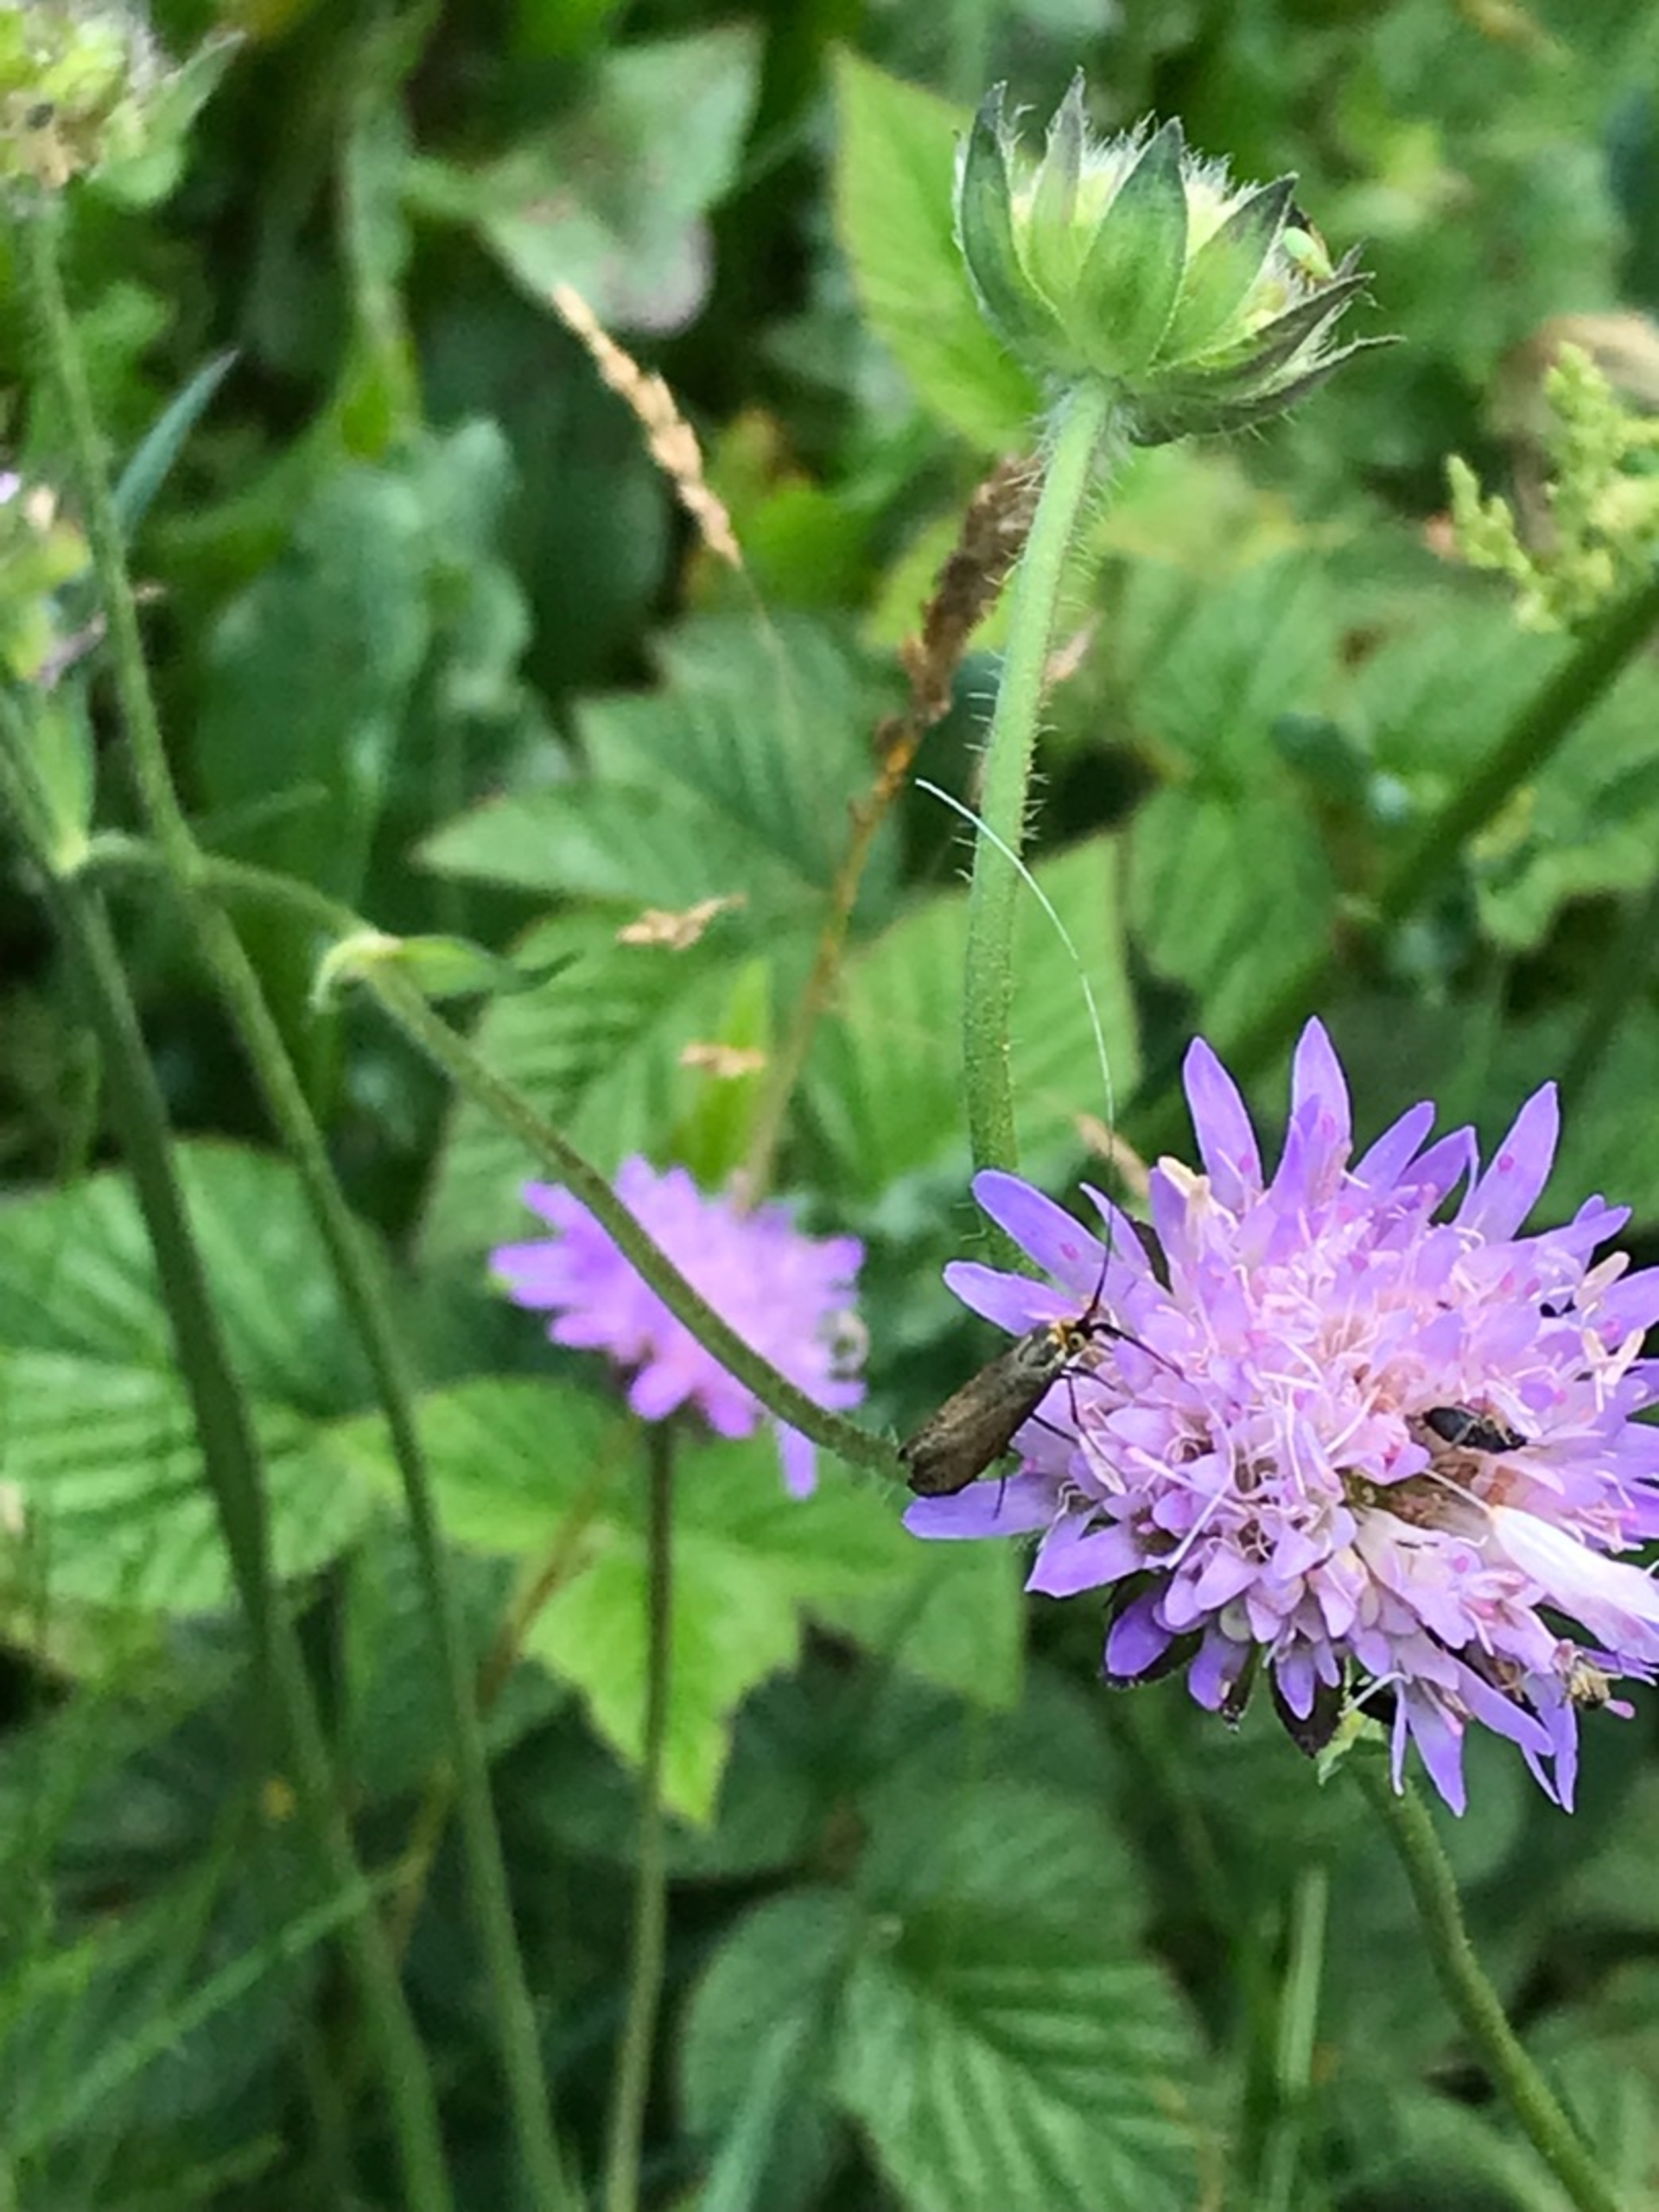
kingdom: Animalia
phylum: Arthropoda
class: Insecta
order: Lepidoptera
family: Adelidae
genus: Nemophora
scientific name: Nemophora cupriacella
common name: Blåhatlanghornsmøl
